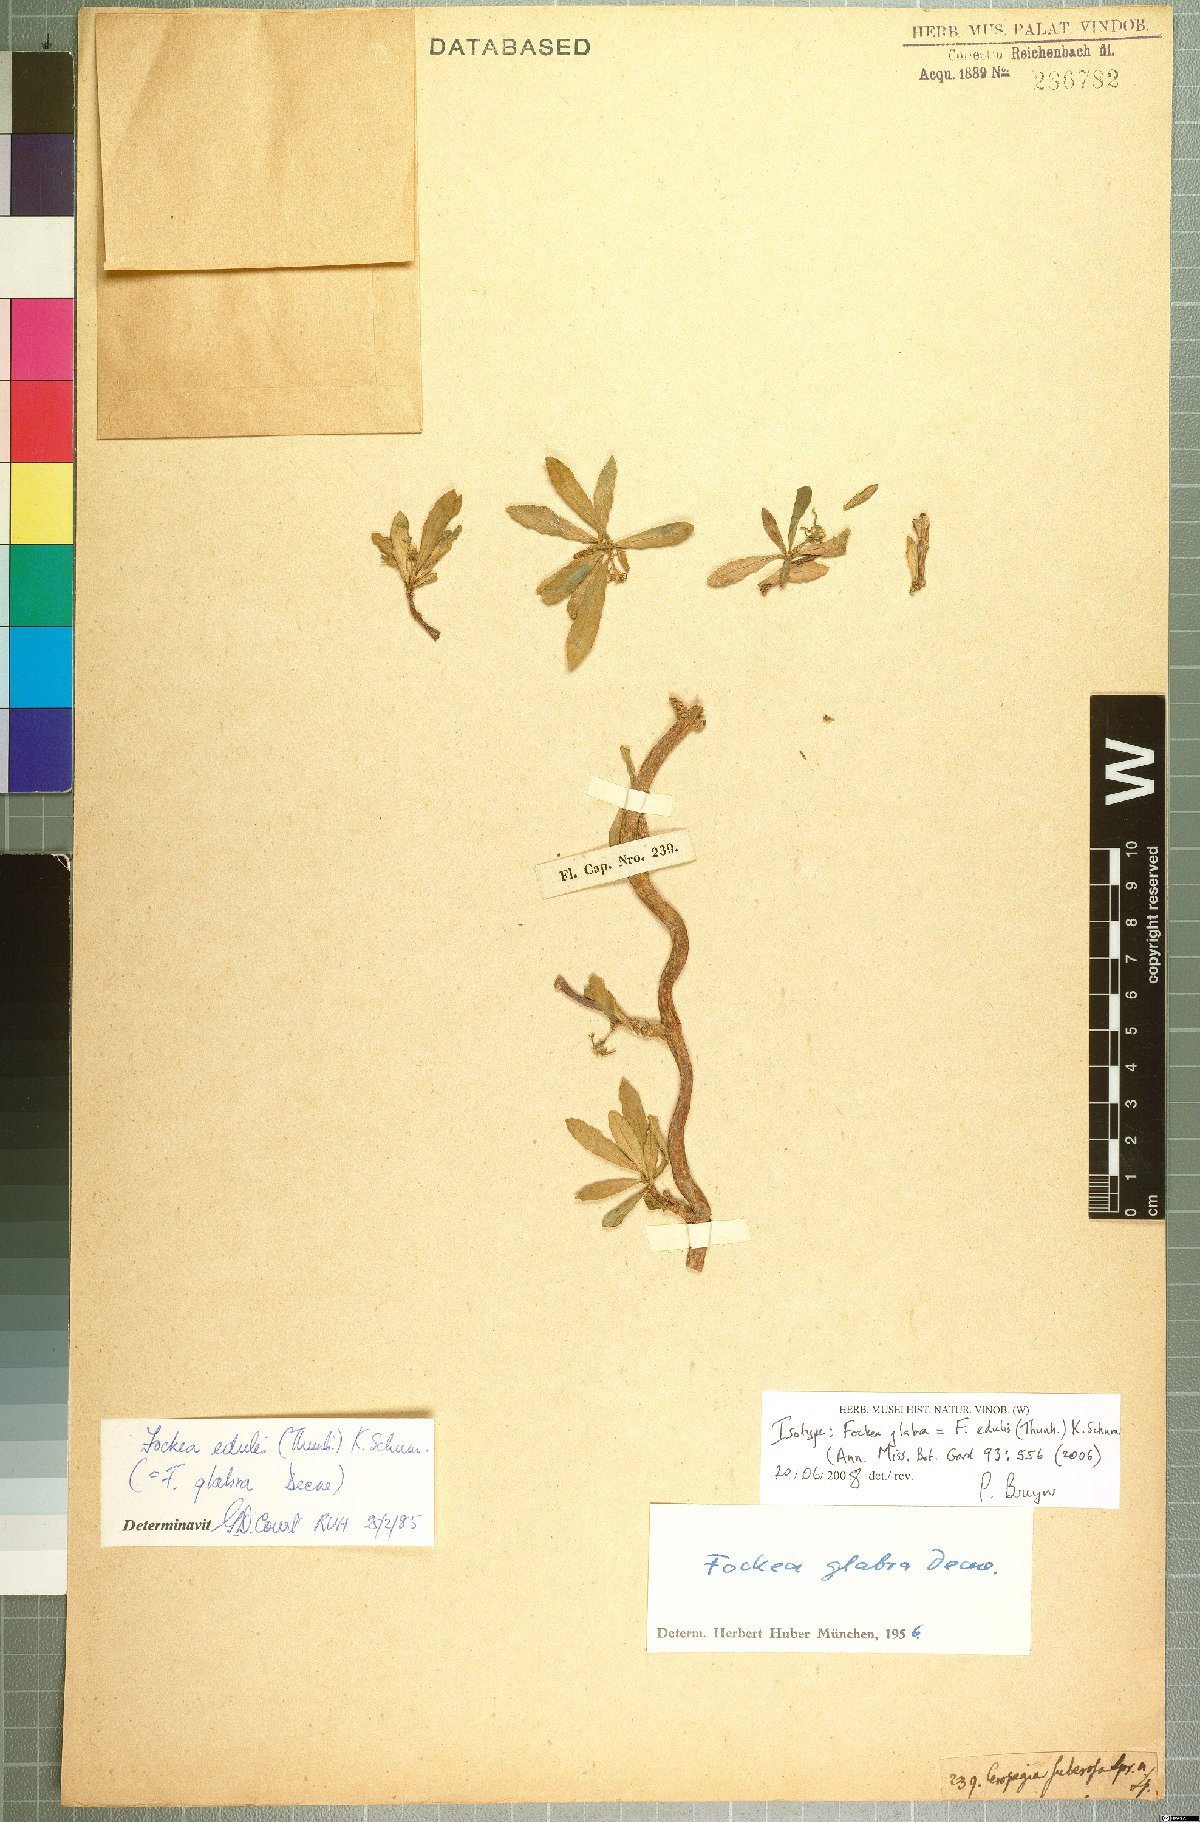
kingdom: Plantae
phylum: Tracheophyta
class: Magnoliopsida
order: Gentianales
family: Apocynaceae
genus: Fockea
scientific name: Fockea edulis
